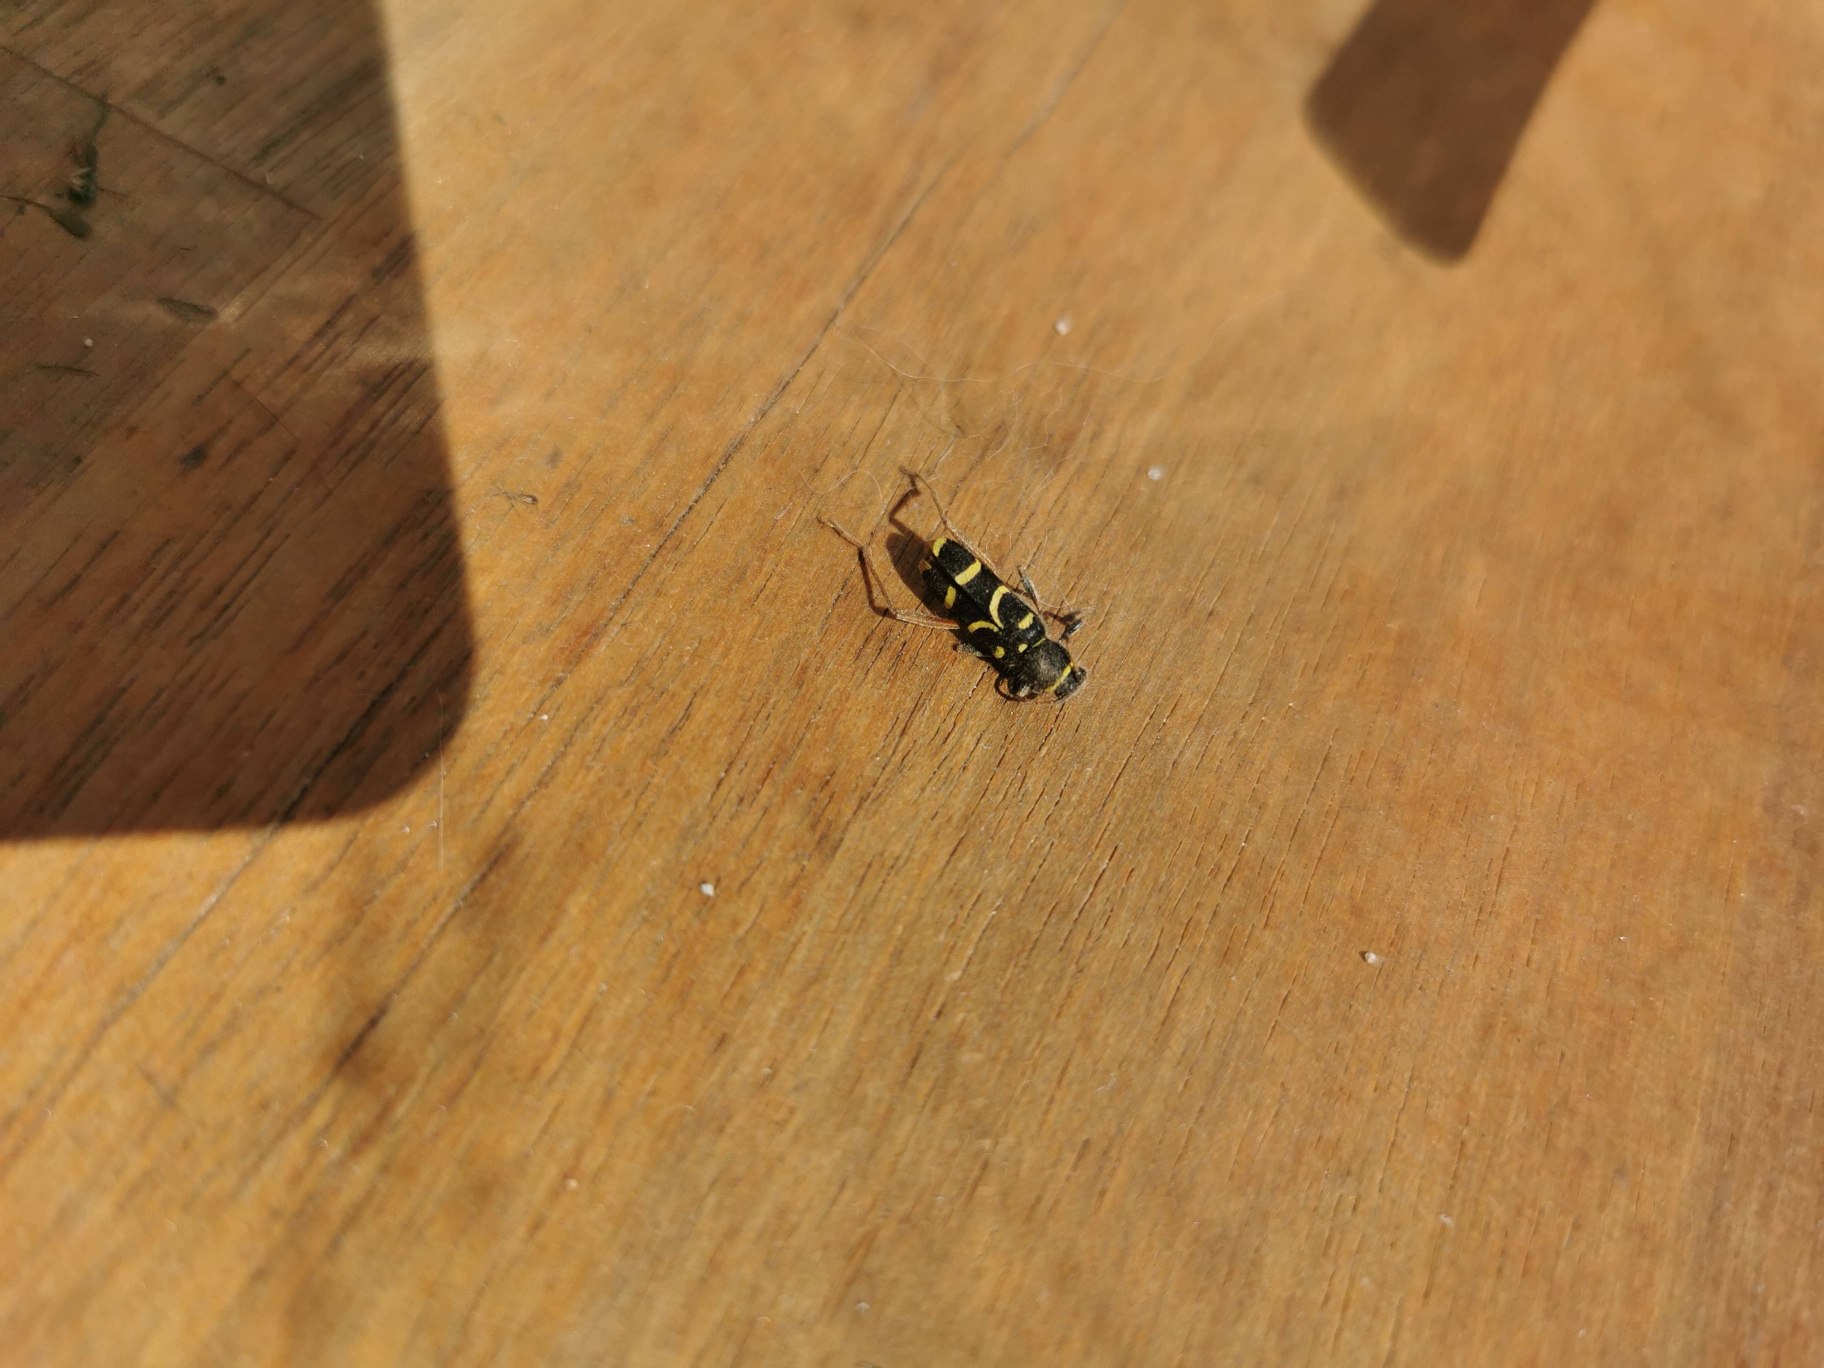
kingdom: Animalia
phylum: Arthropoda
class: Insecta
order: Coleoptera
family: Cerambycidae
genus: Clytus
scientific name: Clytus arietis
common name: Lille hvepsebuk
